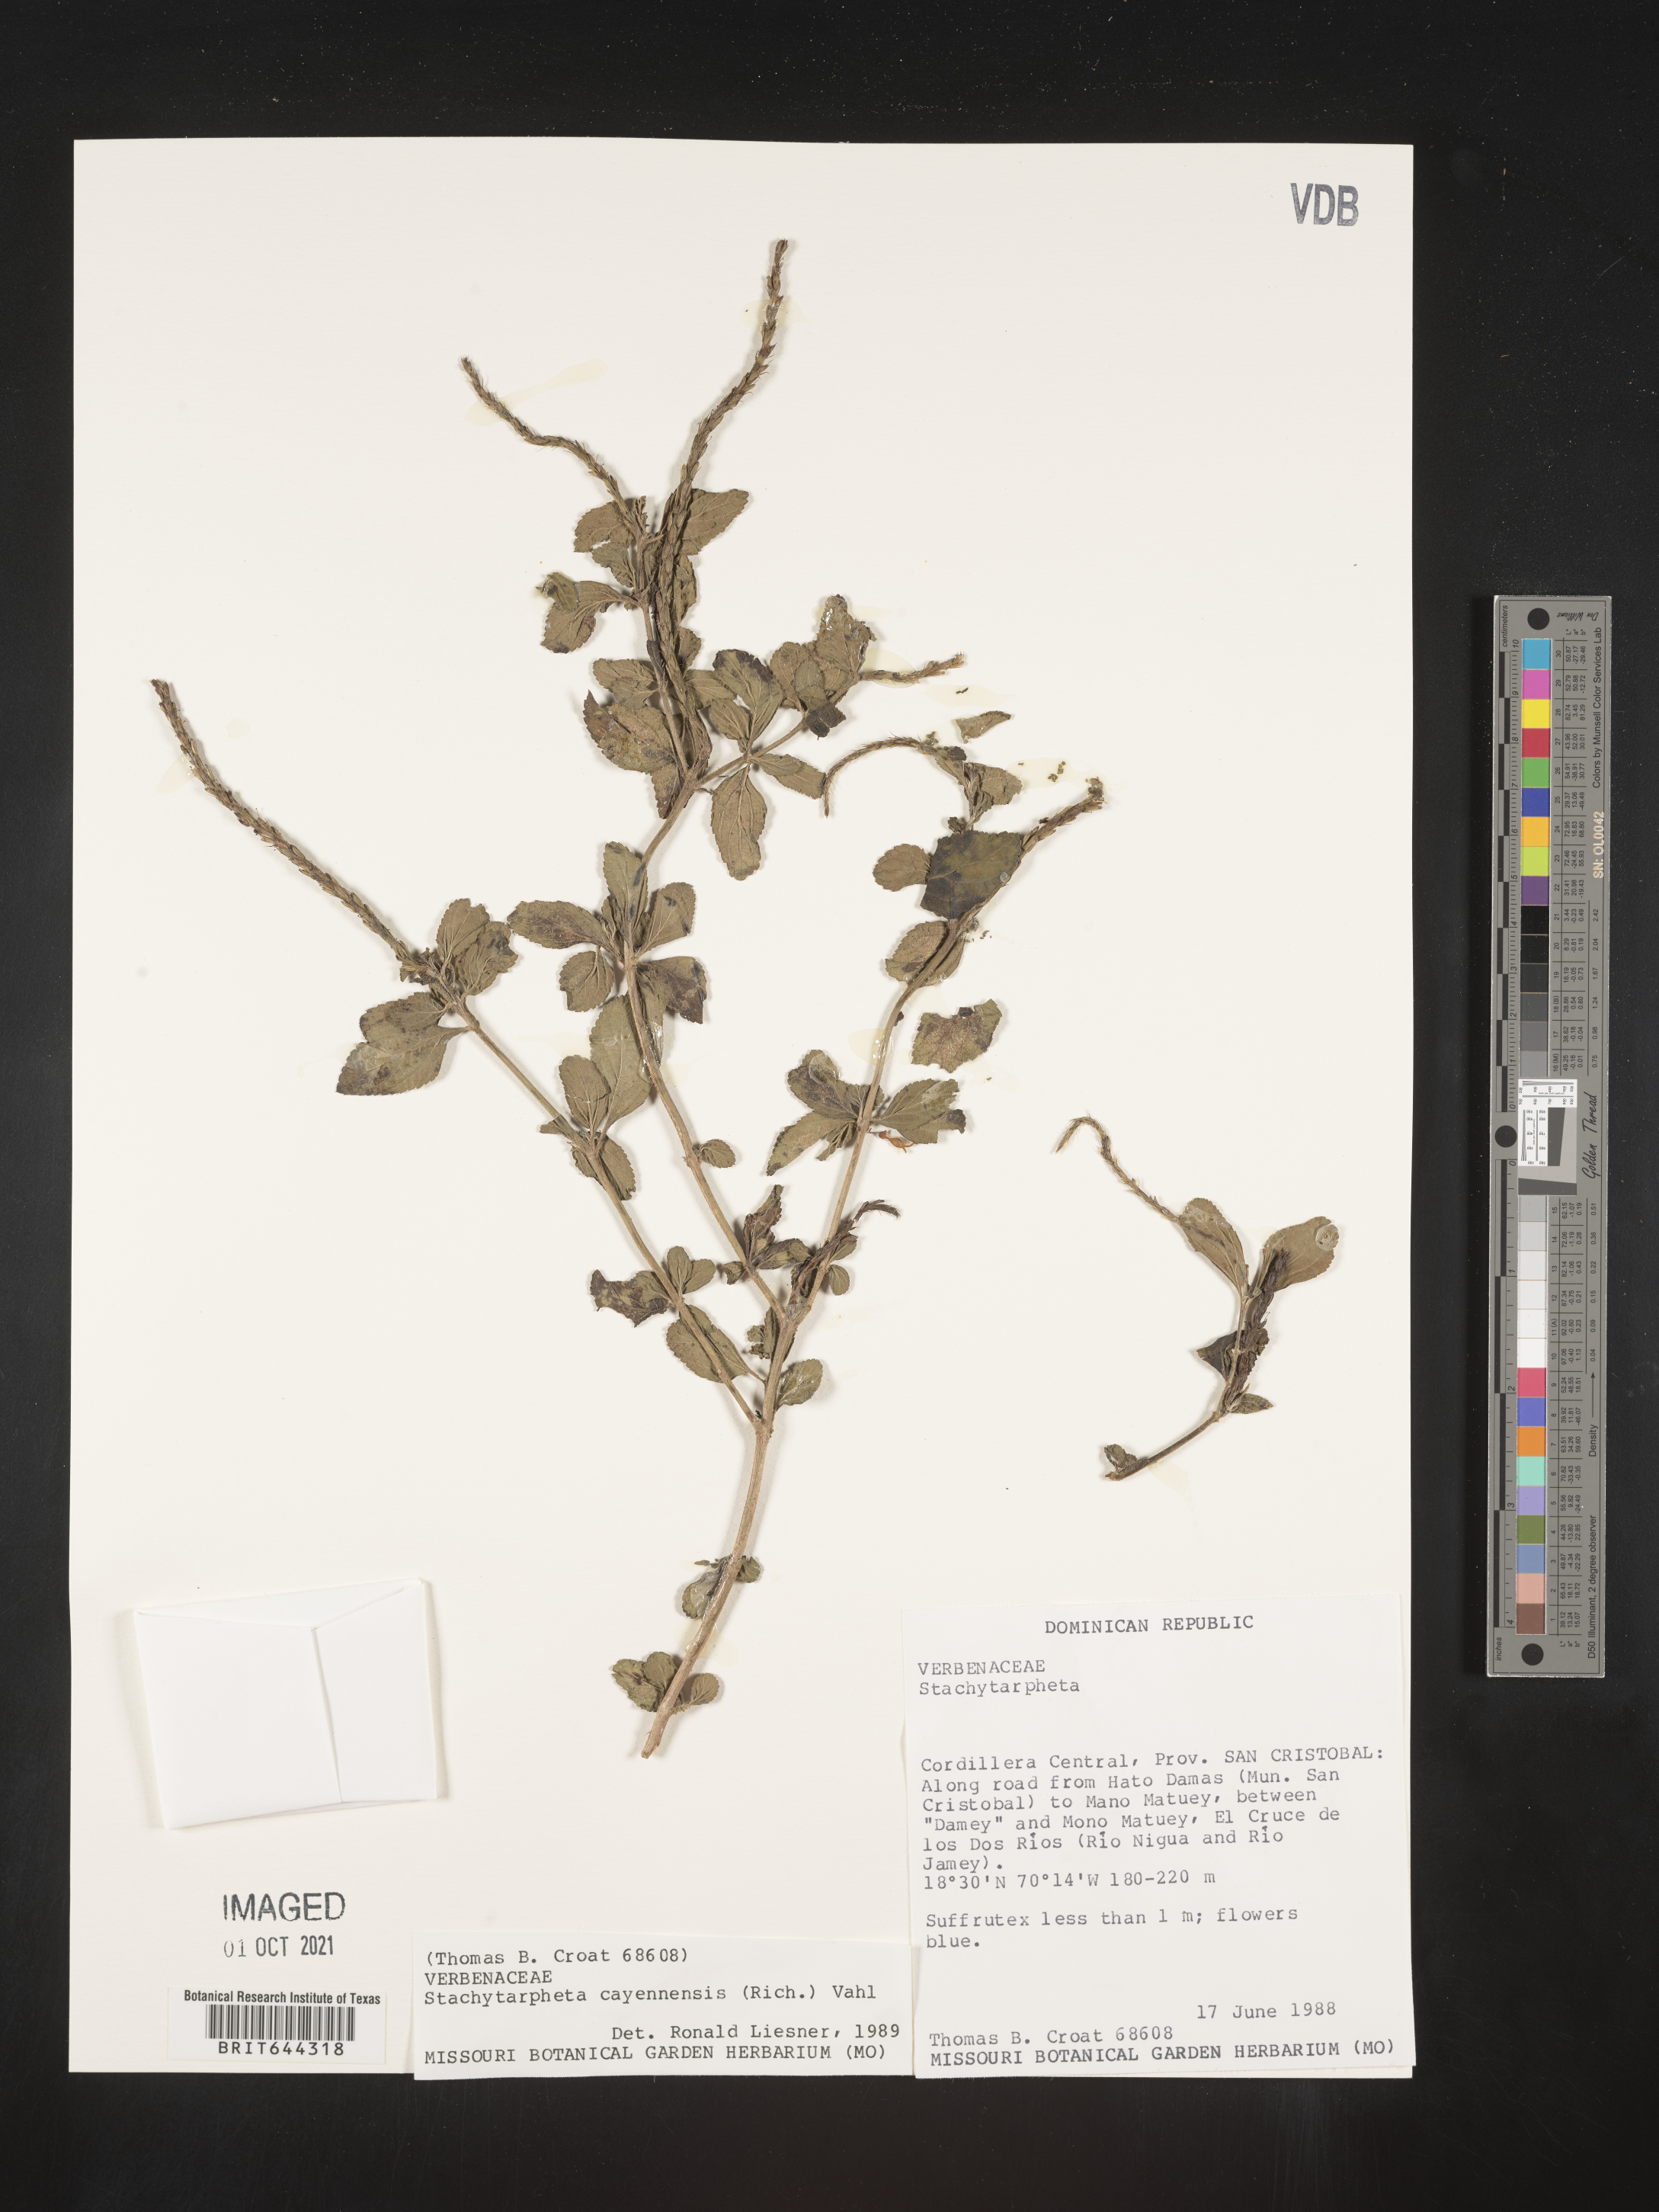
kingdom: Plantae
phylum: Tracheophyta
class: Magnoliopsida
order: Lamiales
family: Verbenaceae
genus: Stachytarpheta
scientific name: Stachytarpheta
